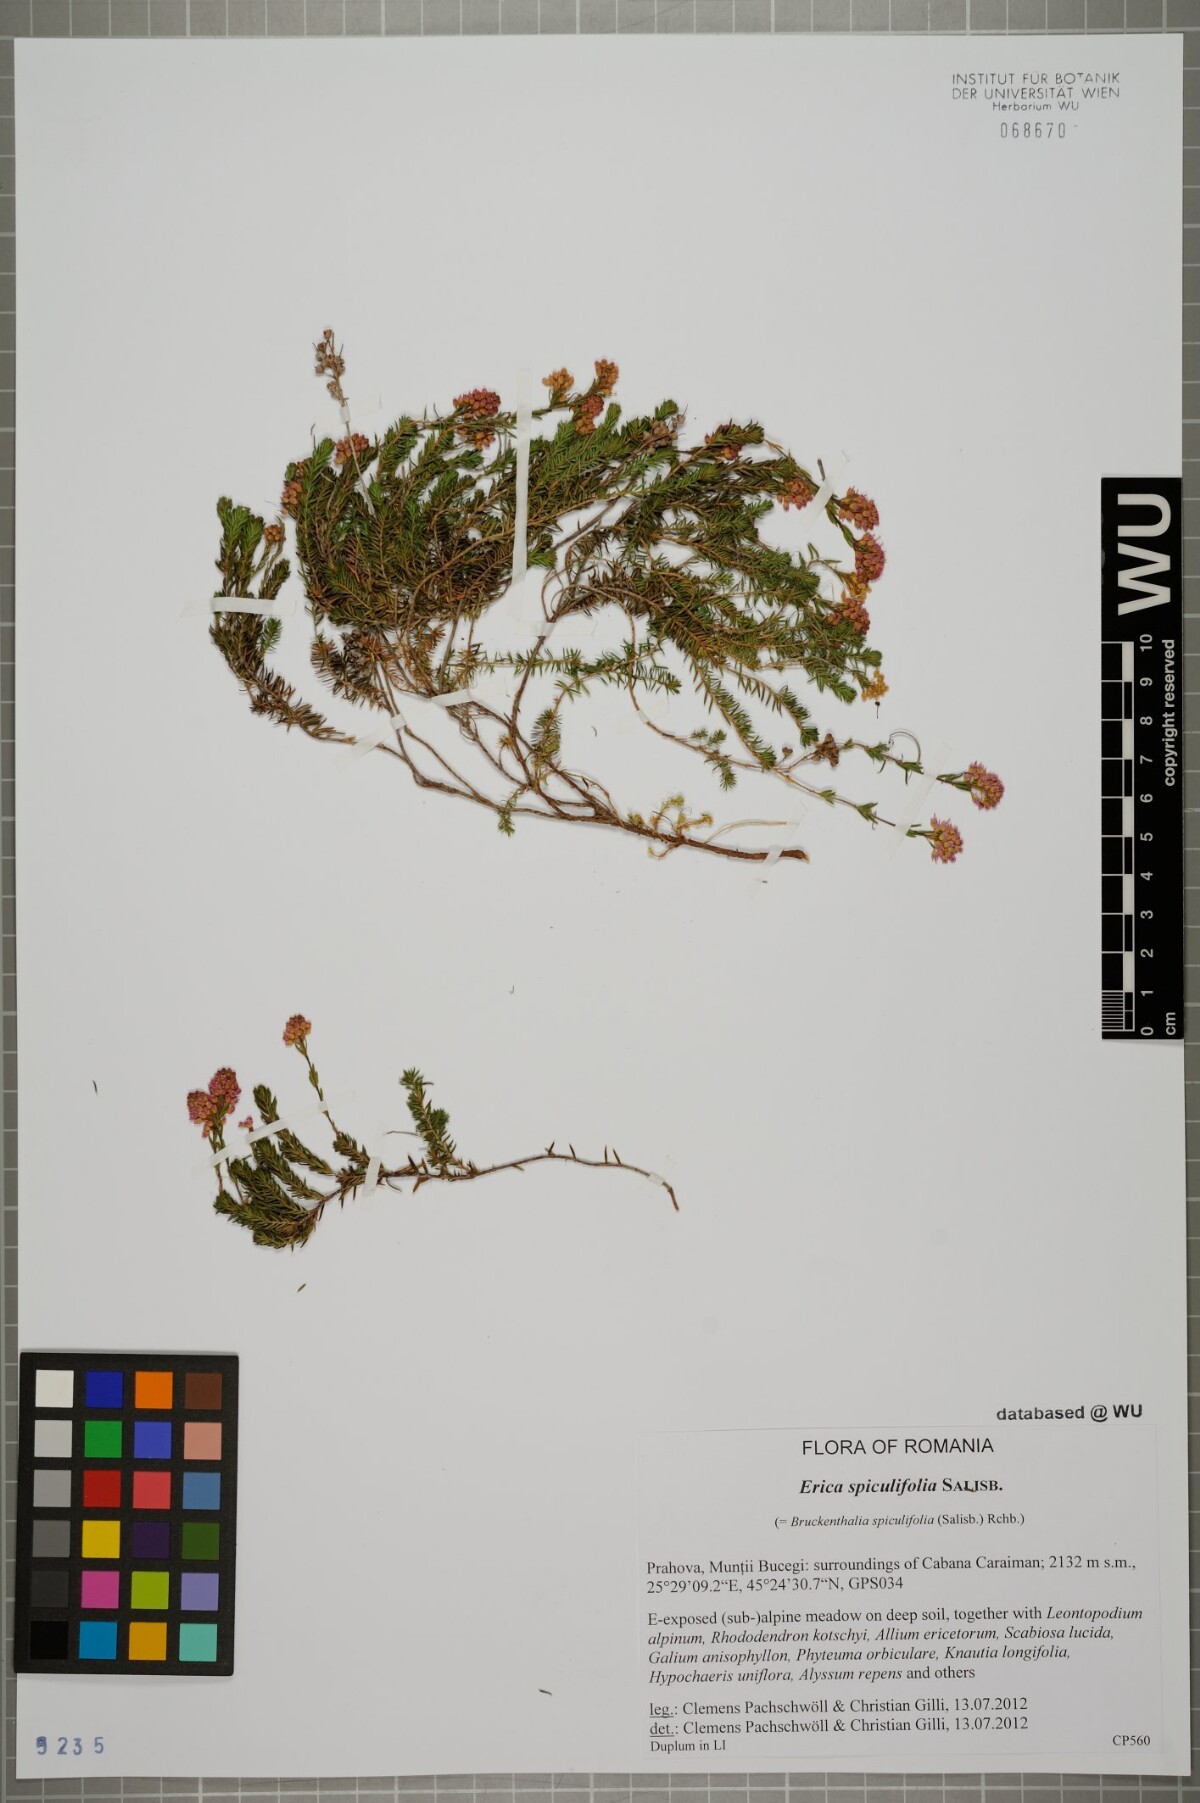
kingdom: Plantae
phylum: Tracheophyta
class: Magnoliopsida
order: Ericales
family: Ericaceae
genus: Erica
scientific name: Erica spiculifolia
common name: Spike heath
